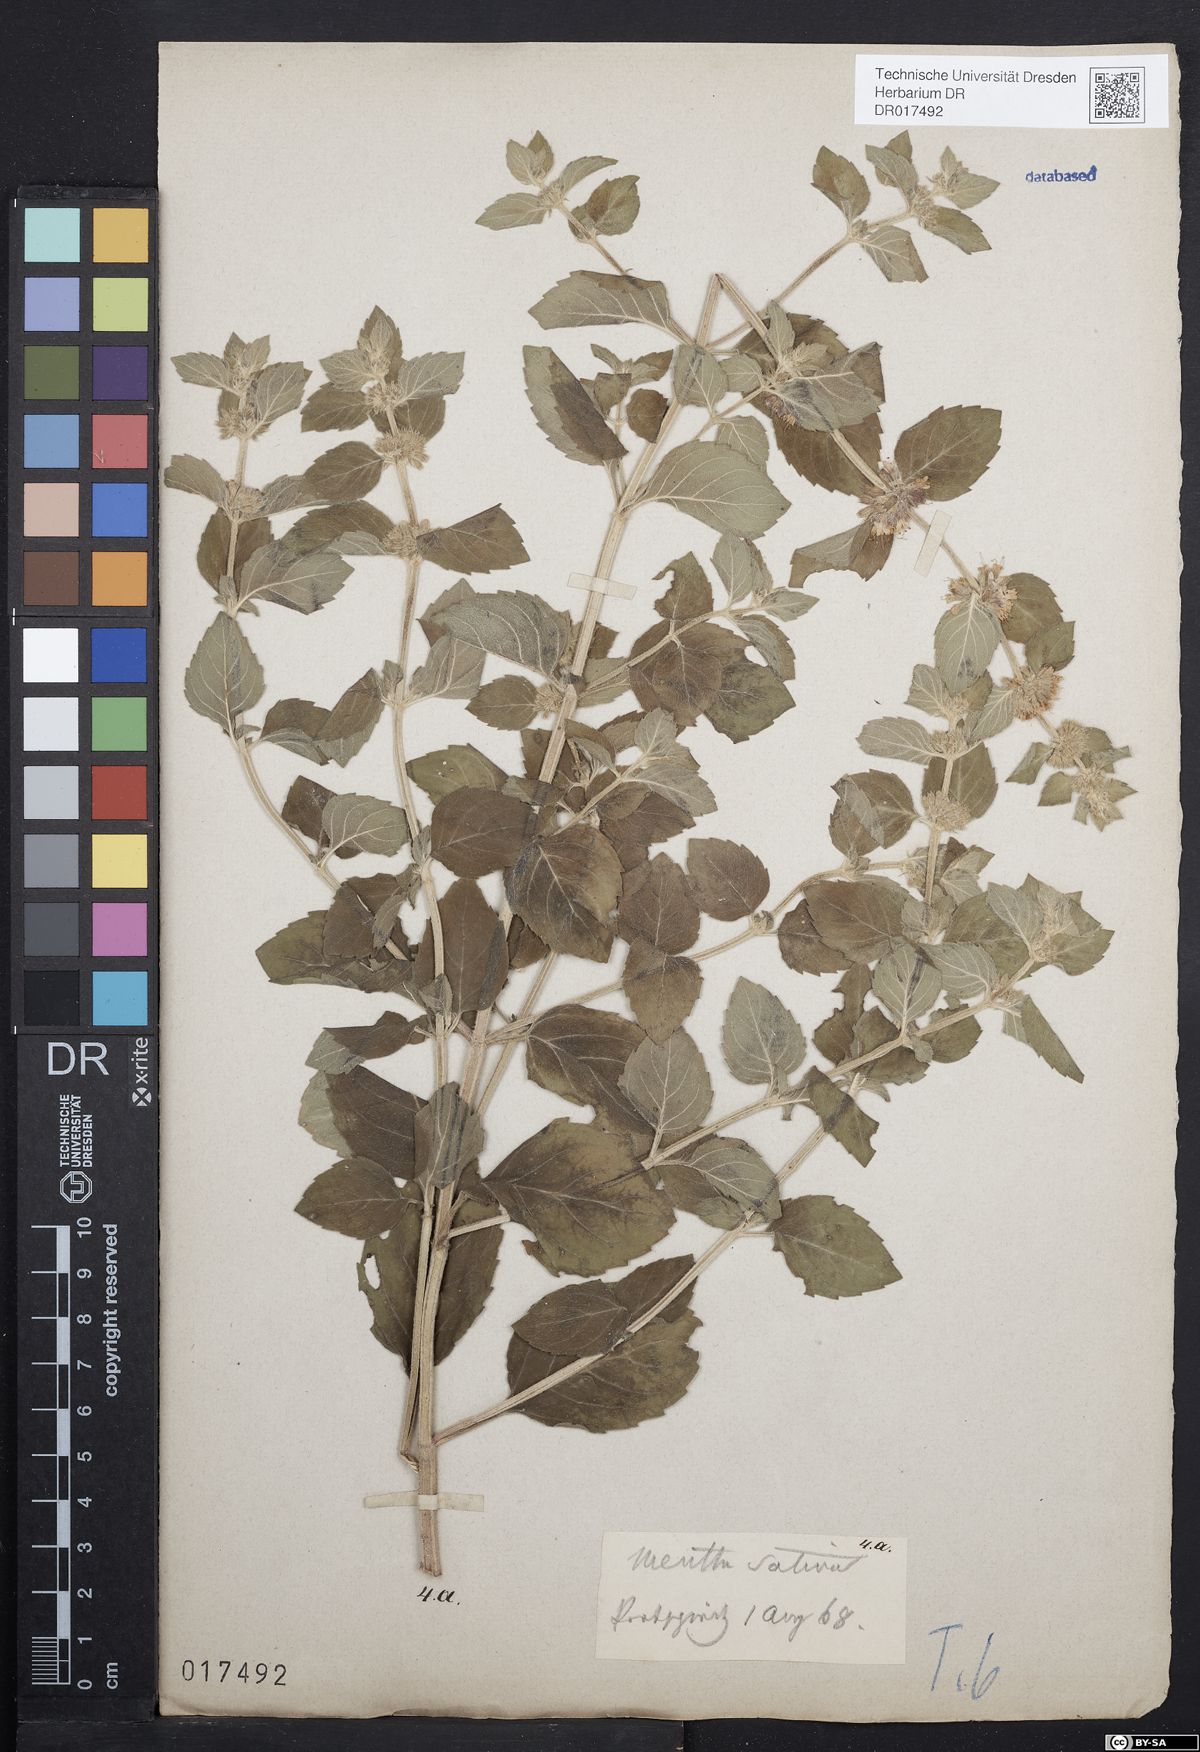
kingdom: Plantae
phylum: Tracheophyta
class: Magnoliopsida
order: Lamiales
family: Lamiaceae
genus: Mentha
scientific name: Mentha verticillata
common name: Mint
